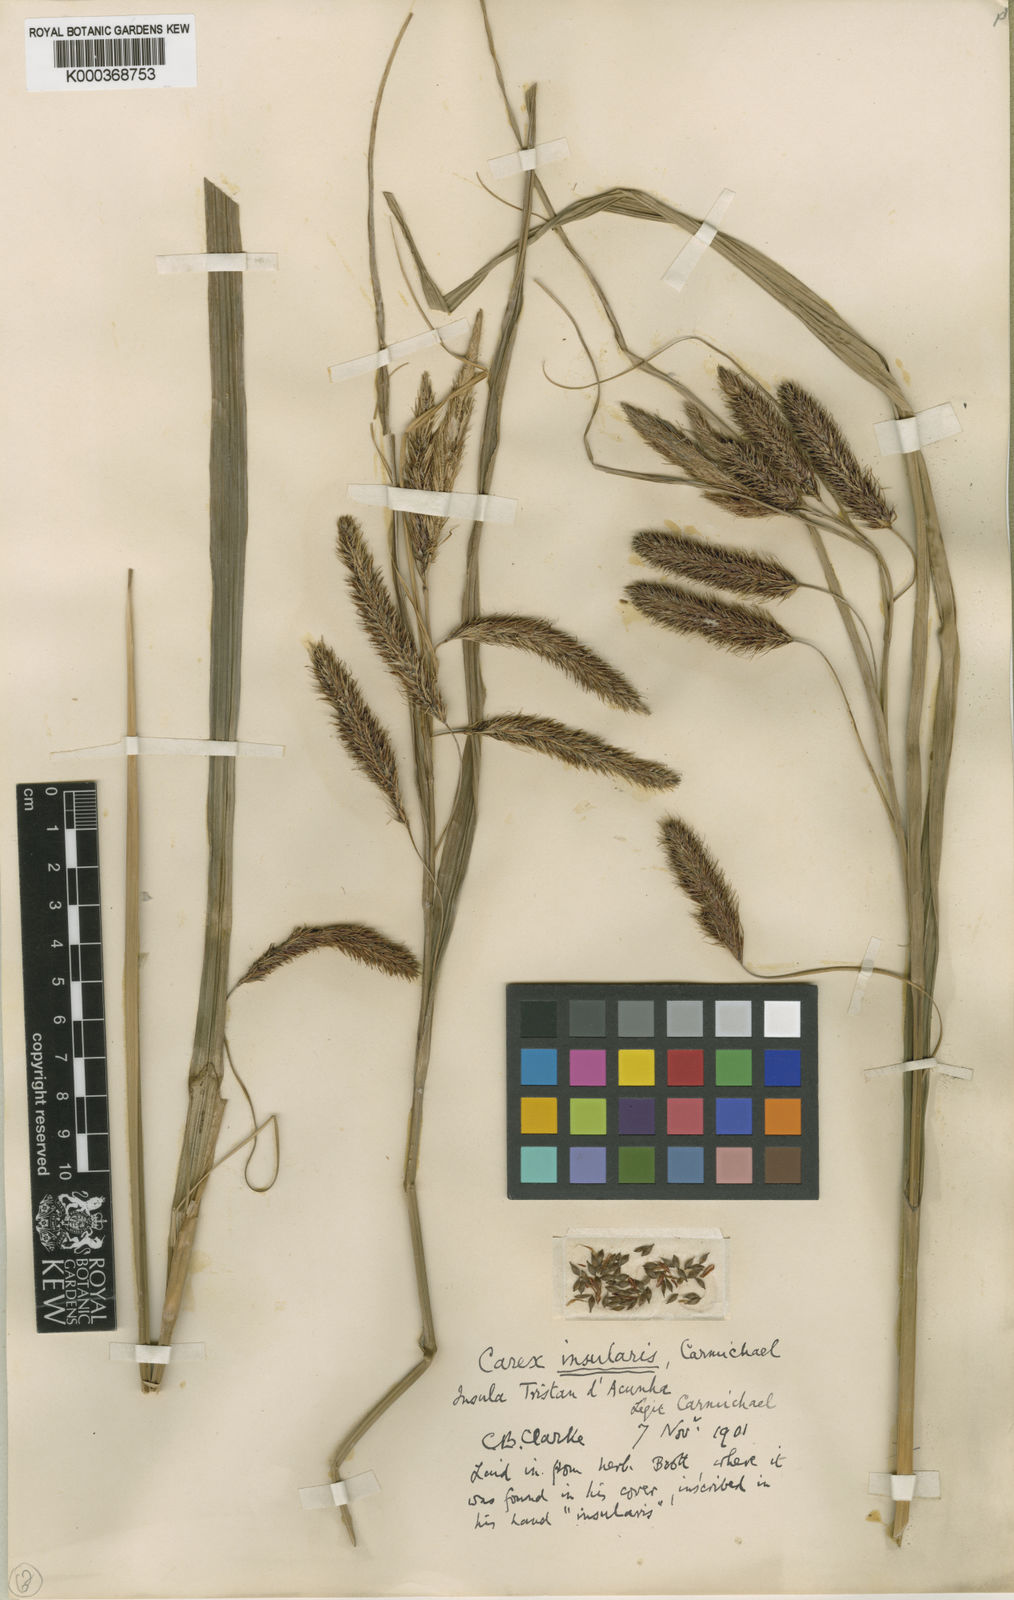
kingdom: Plantae
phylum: Tracheophyta
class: Liliopsida
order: Poales
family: Cyperaceae
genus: Carex
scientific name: Carex insularis
